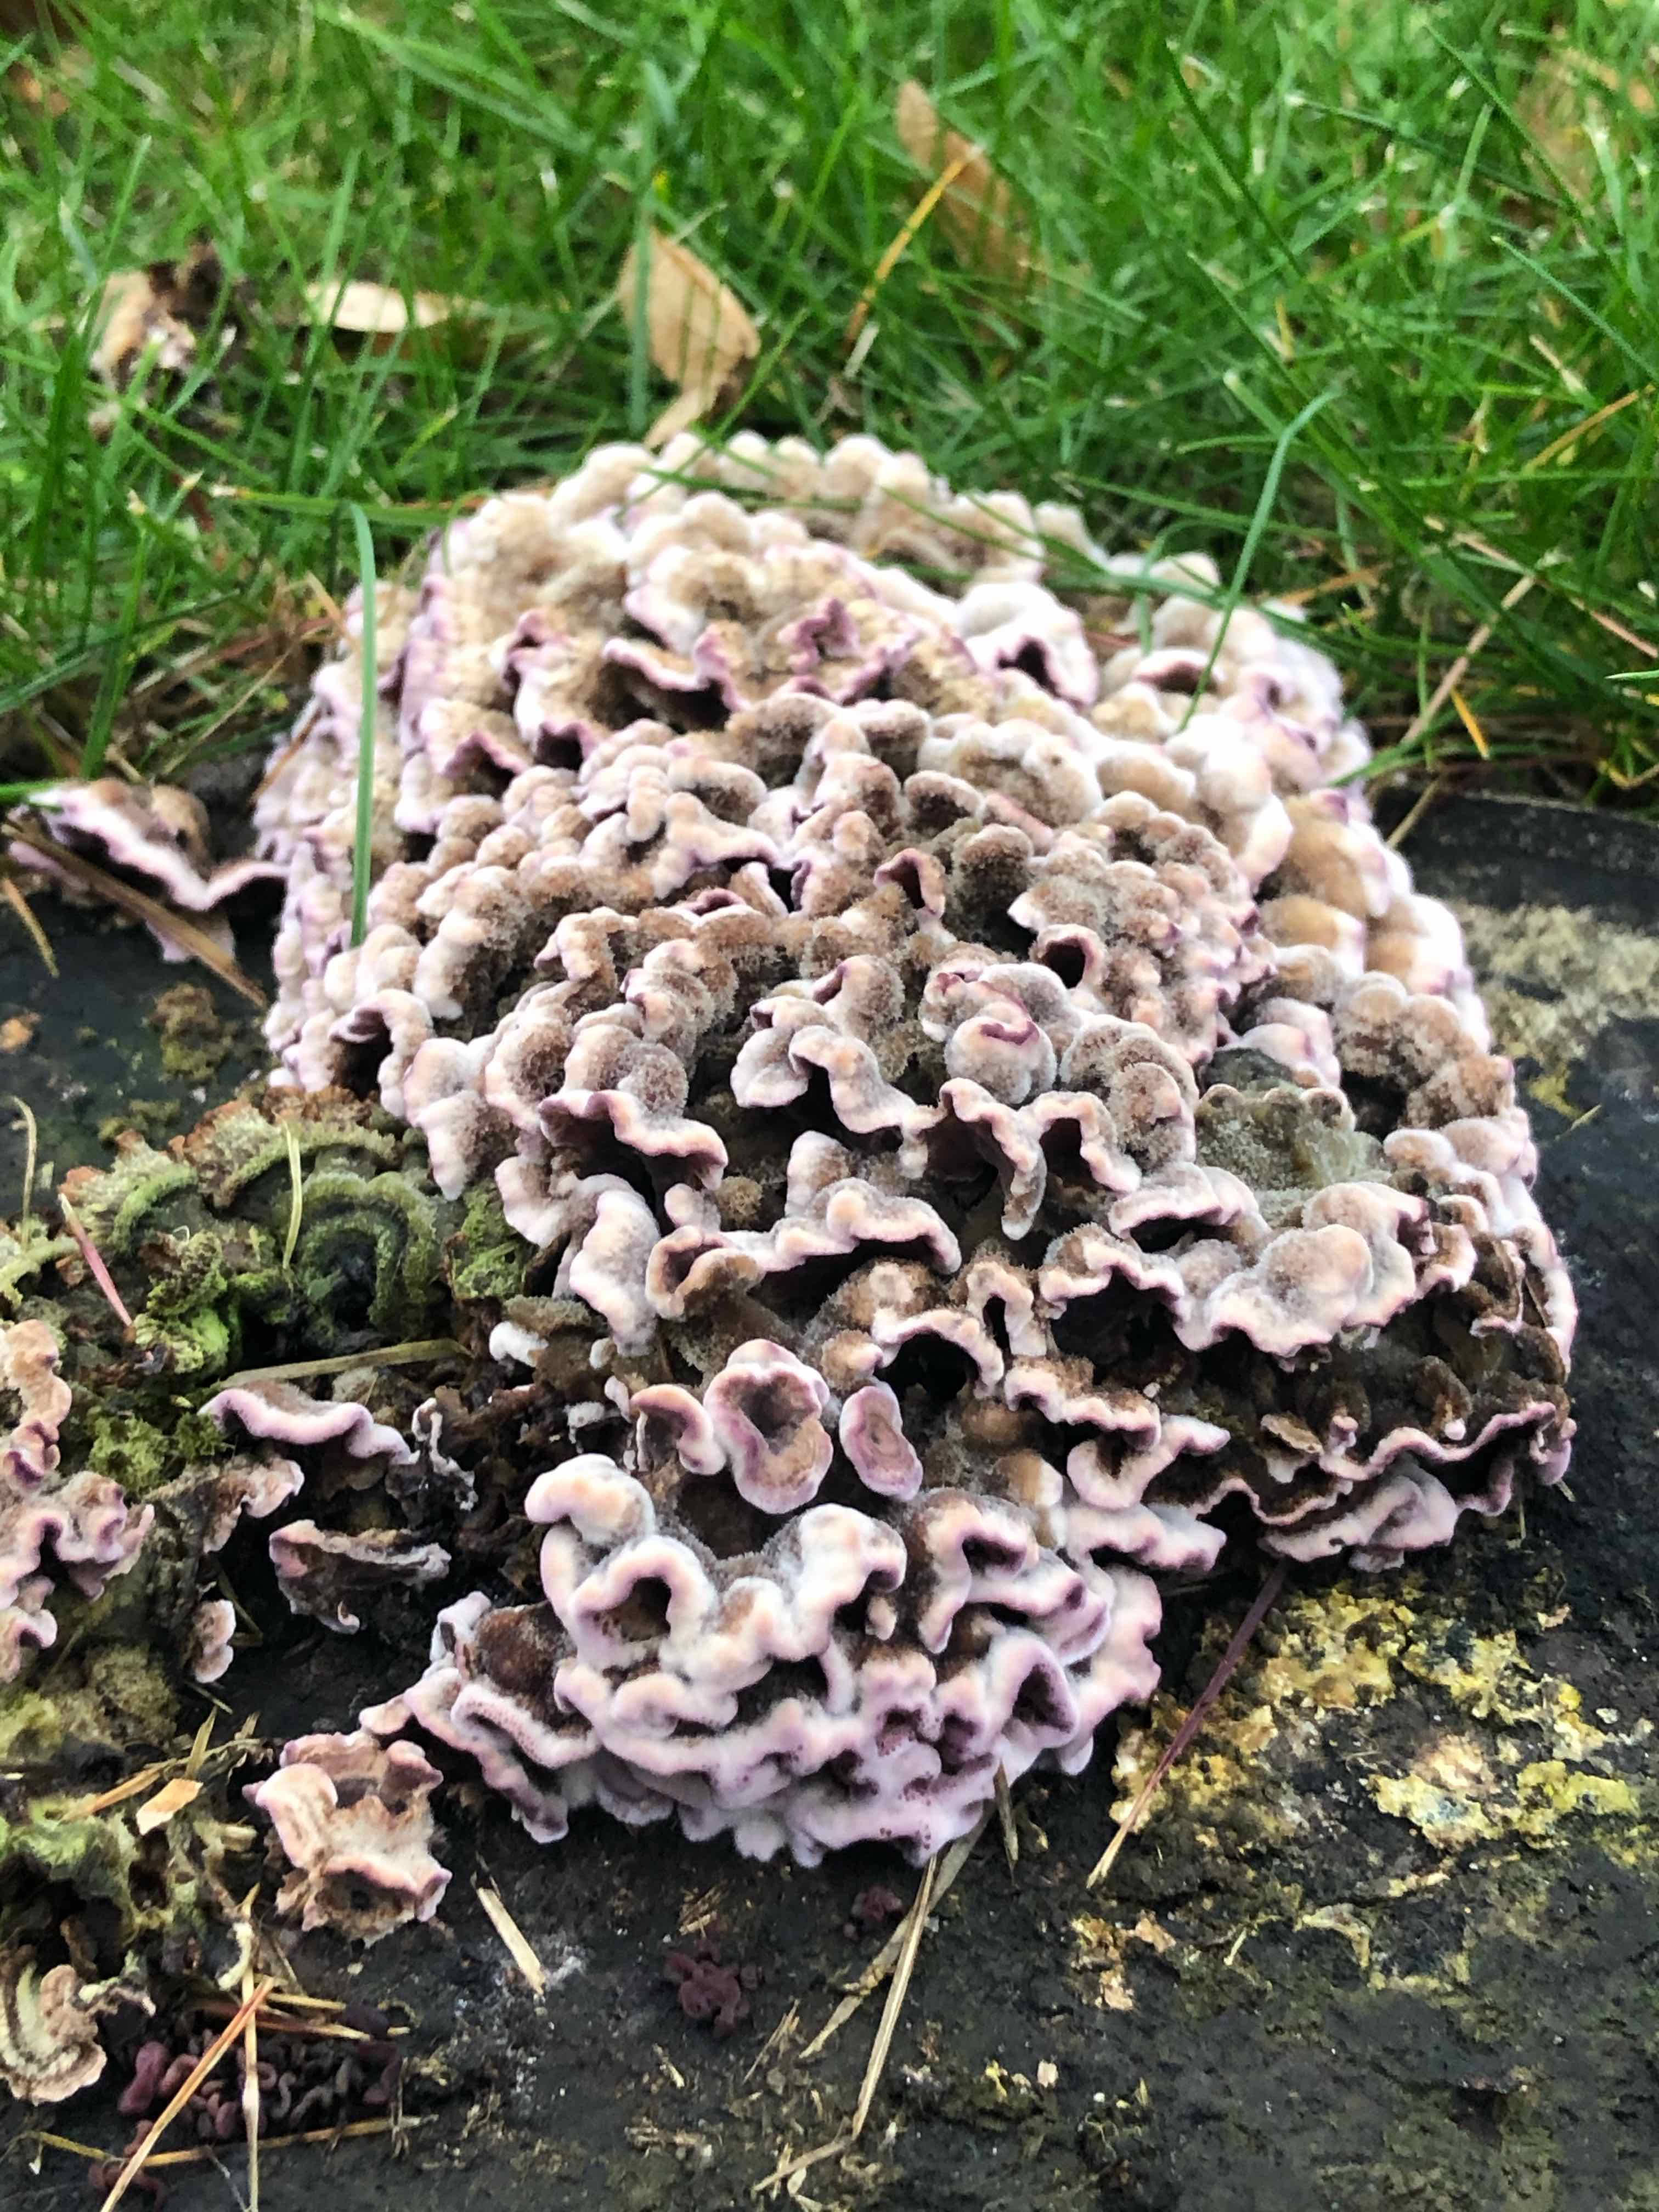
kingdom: Fungi
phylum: Basidiomycota
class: Agaricomycetes
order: Agaricales
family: Cyphellaceae
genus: Chondrostereum
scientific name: Chondrostereum purpureum
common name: purpurlædersvamp
